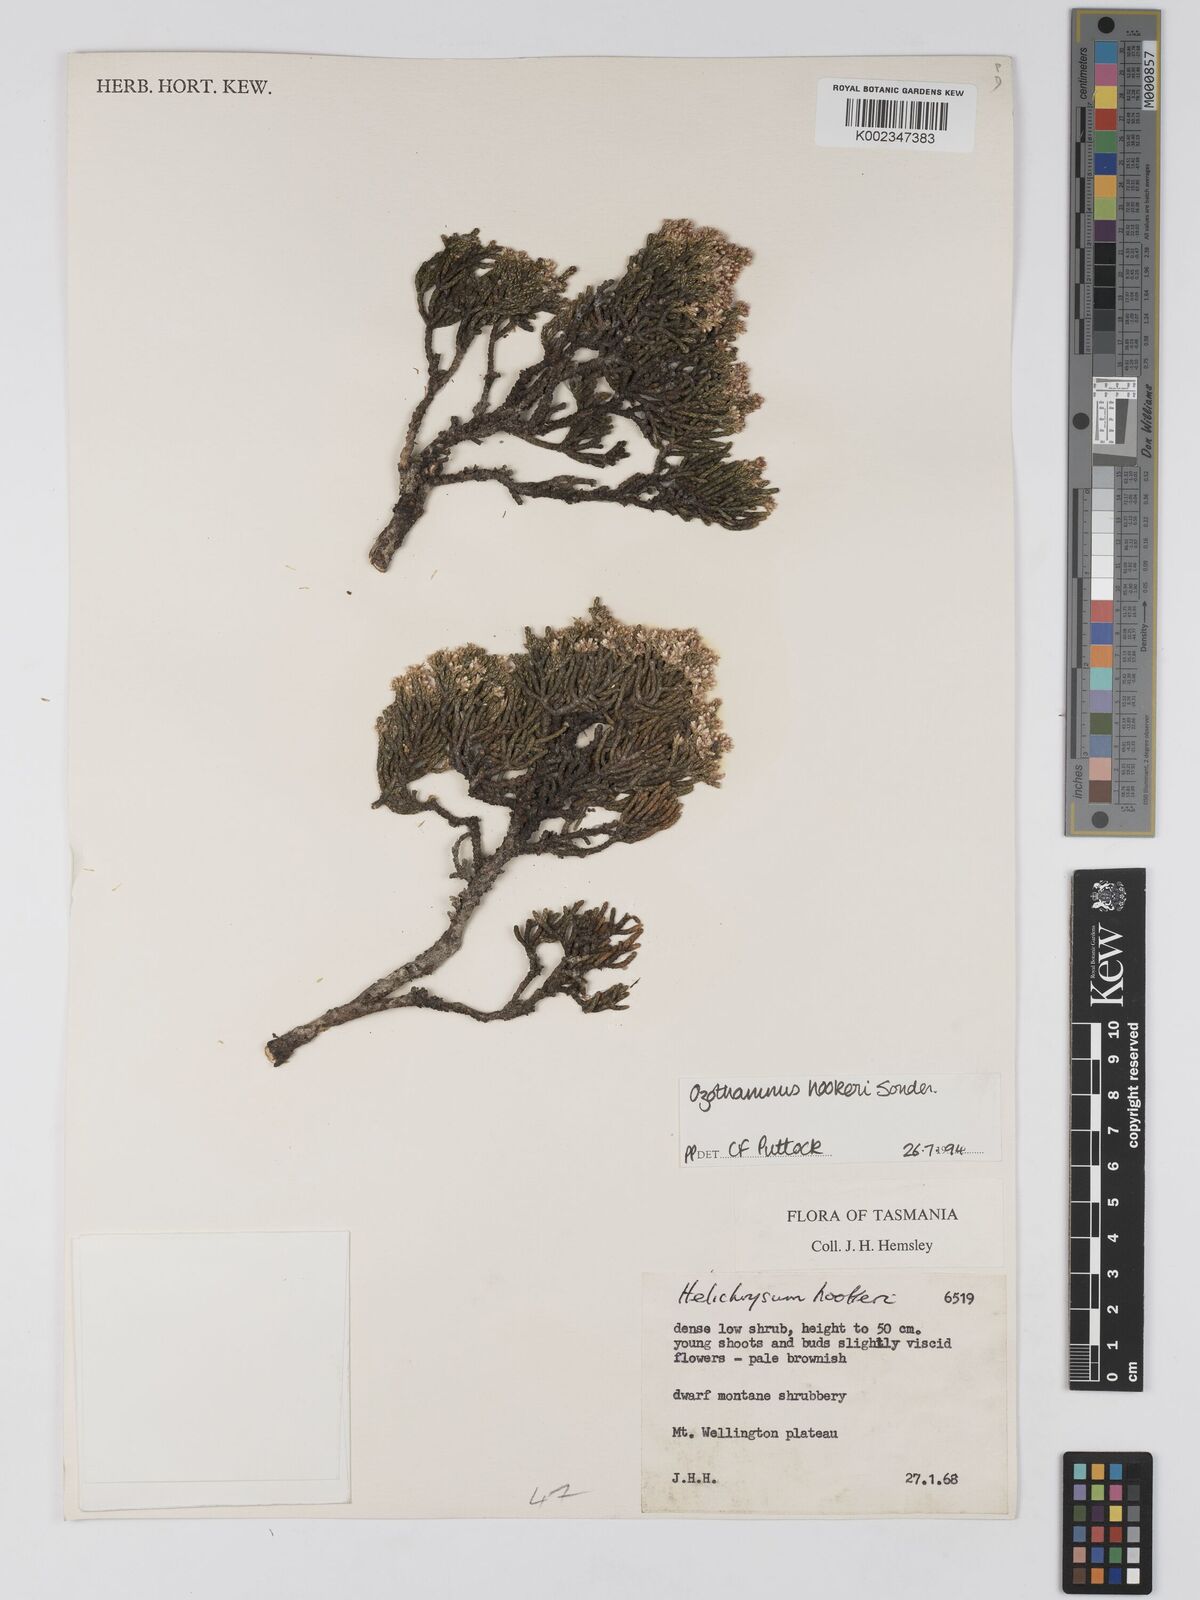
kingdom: Plantae
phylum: Tracheophyta
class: Magnoliopsida
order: Asterales
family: Asteraceae
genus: Ozothamnus
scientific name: Ozothamnus hookeri
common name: Kerosene-bush
